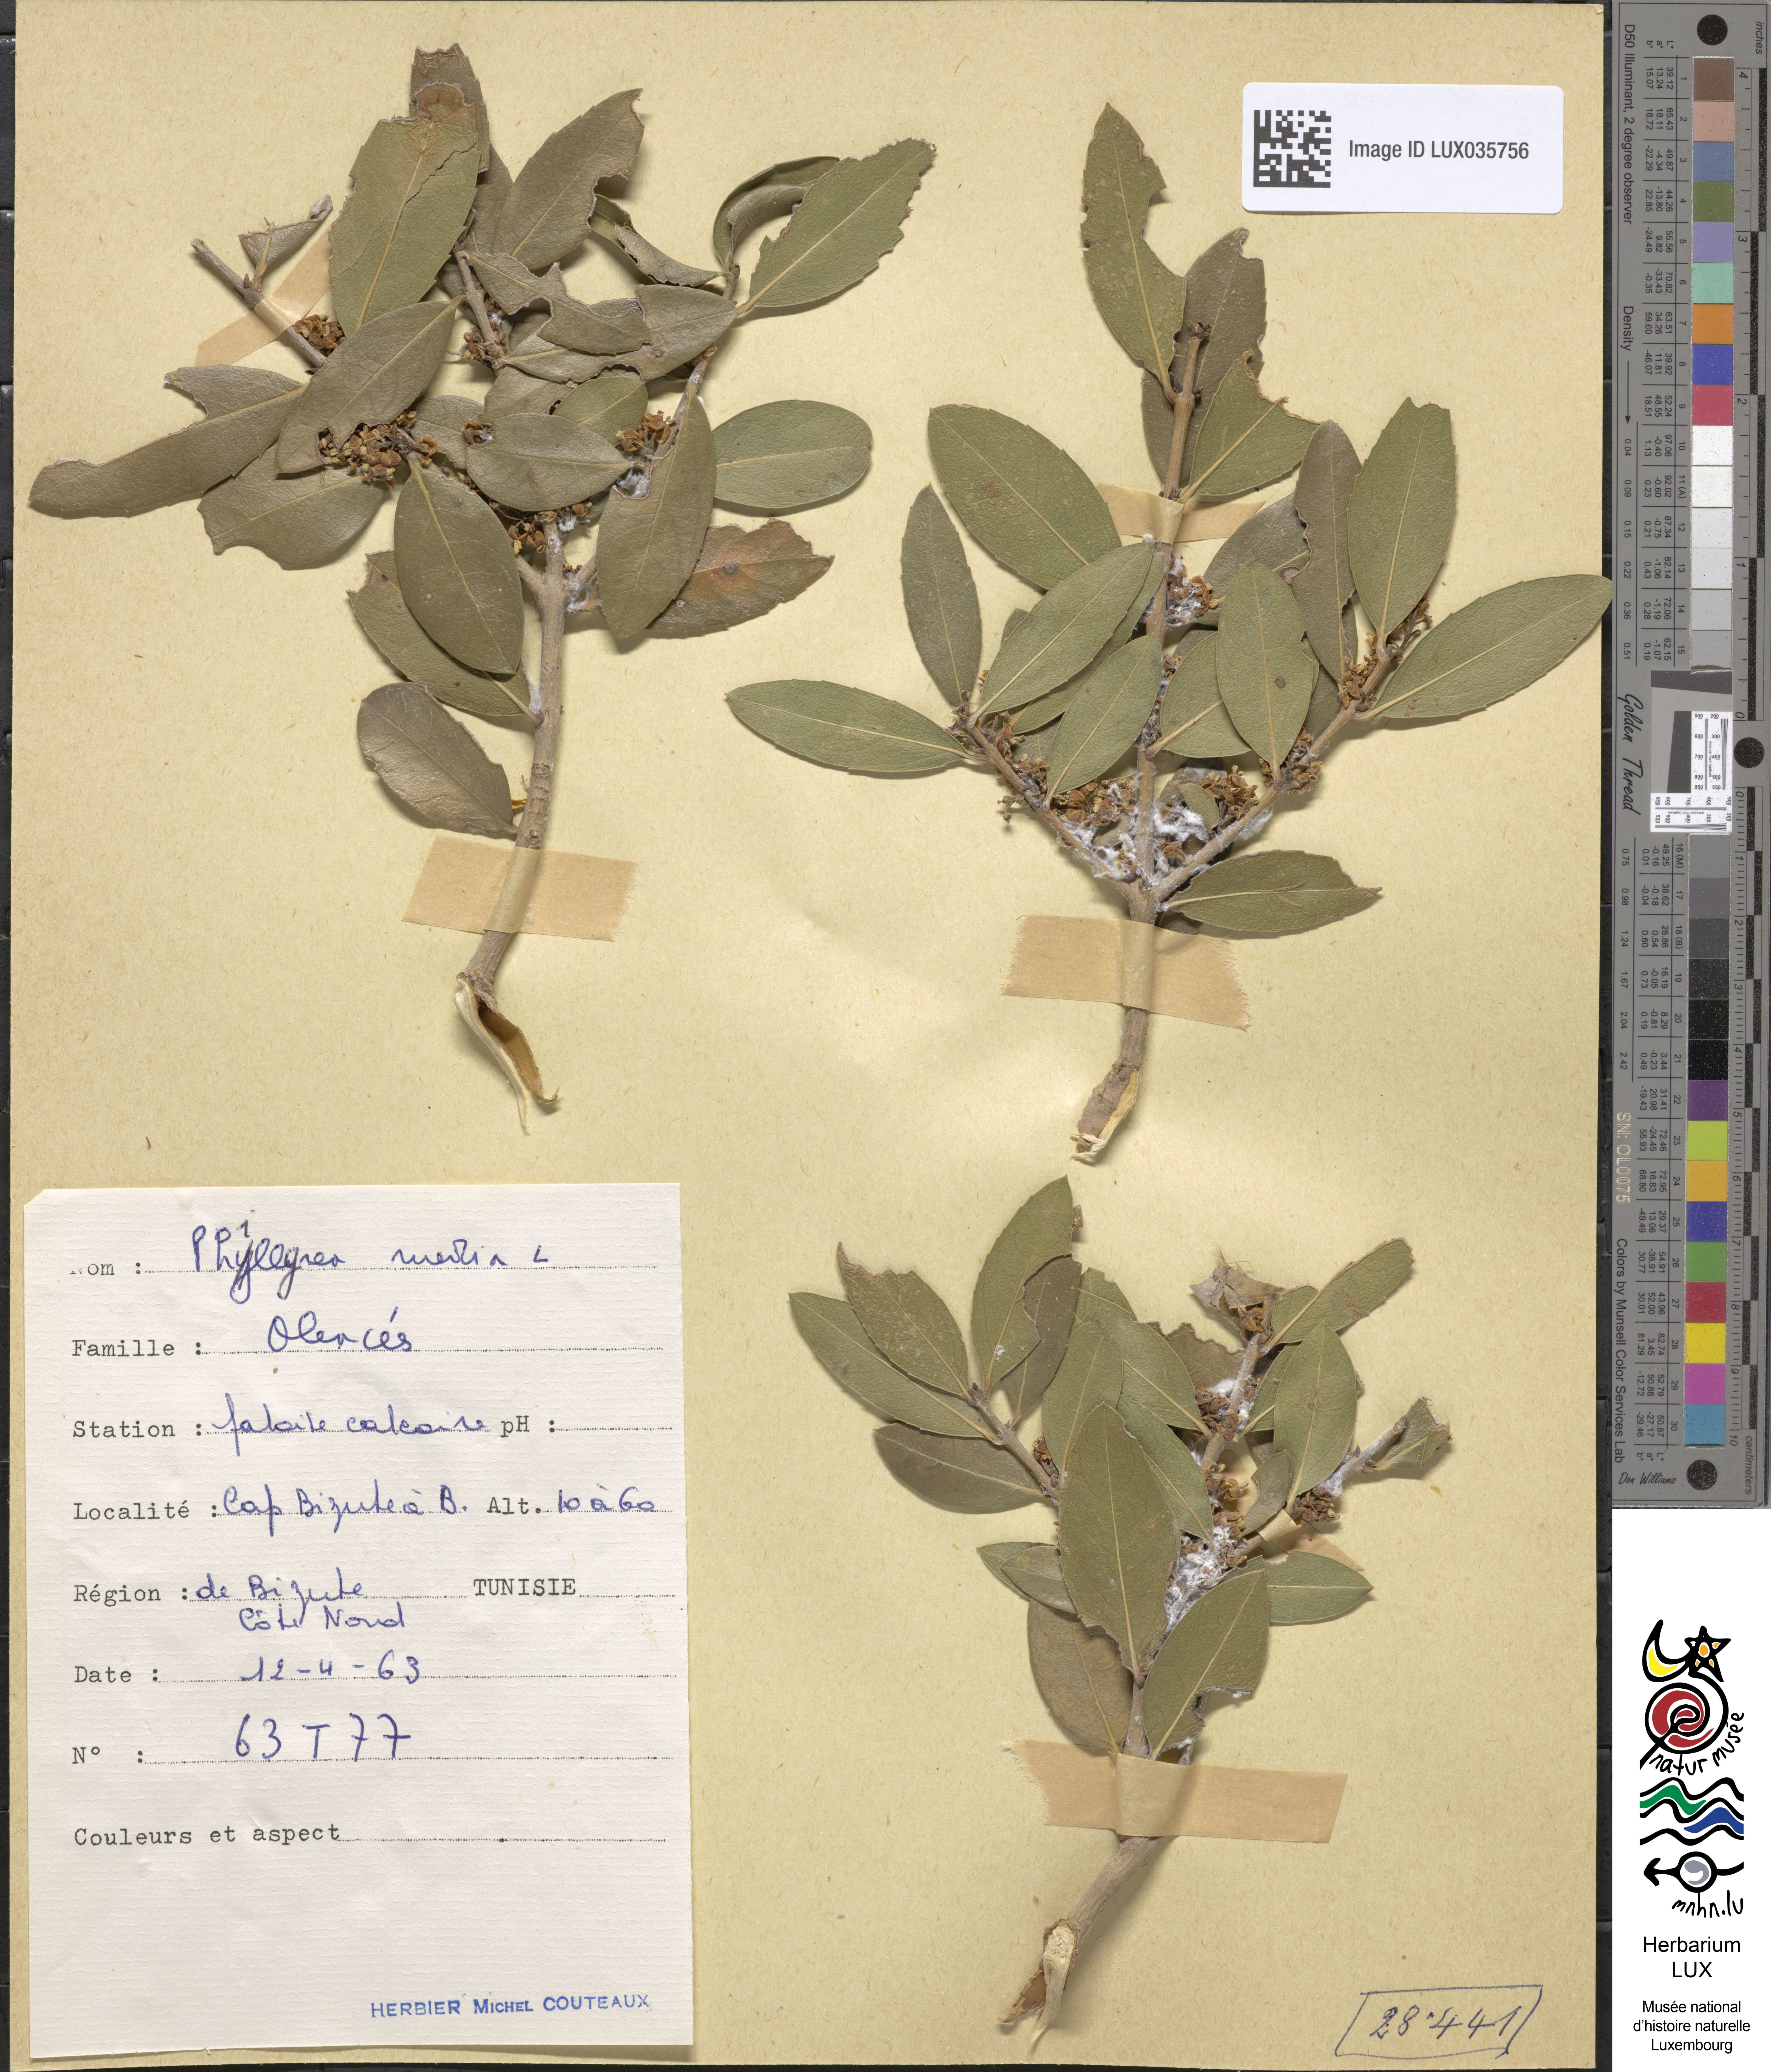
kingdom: Plantae
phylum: Tracheophyta
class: Magnoliopsida
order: Lamiales
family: Oleaceae
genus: Phillyrea
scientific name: Phillyrea latifolia
